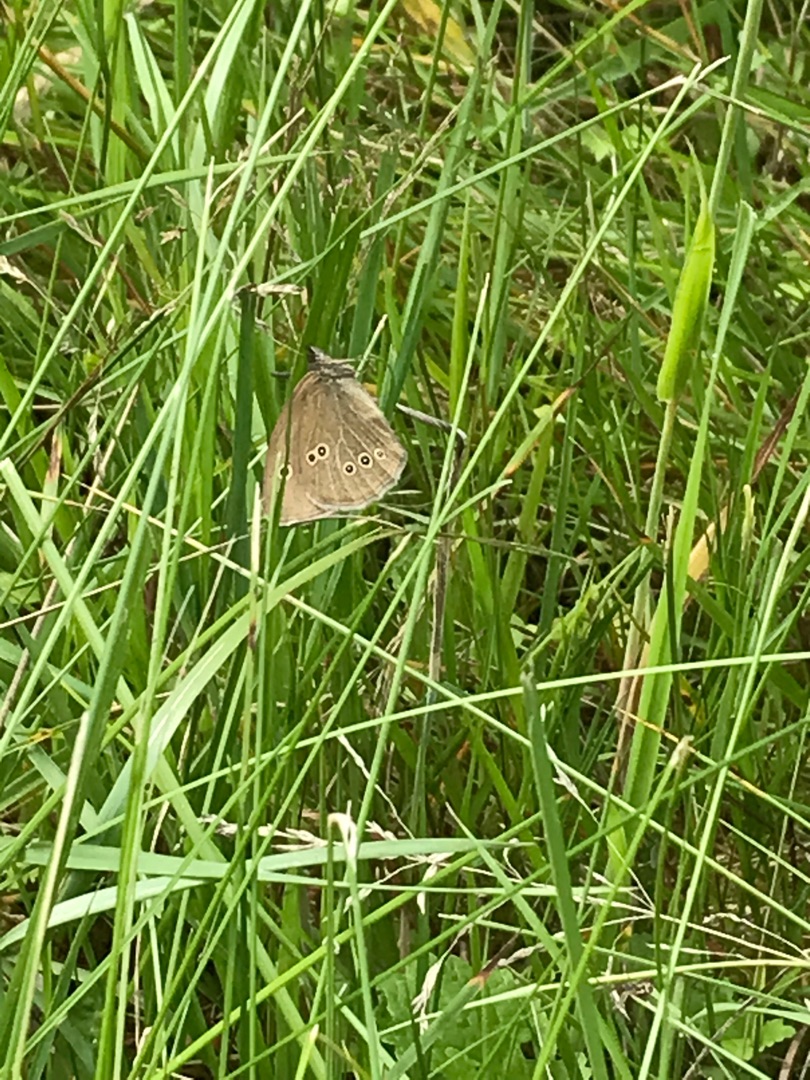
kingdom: Animalia
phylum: Arthropoda
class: Insecta
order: Lepidoptera
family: Nymphalidae
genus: Aphantopus
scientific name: Aphantopus hyperantus
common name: Engrandøje
